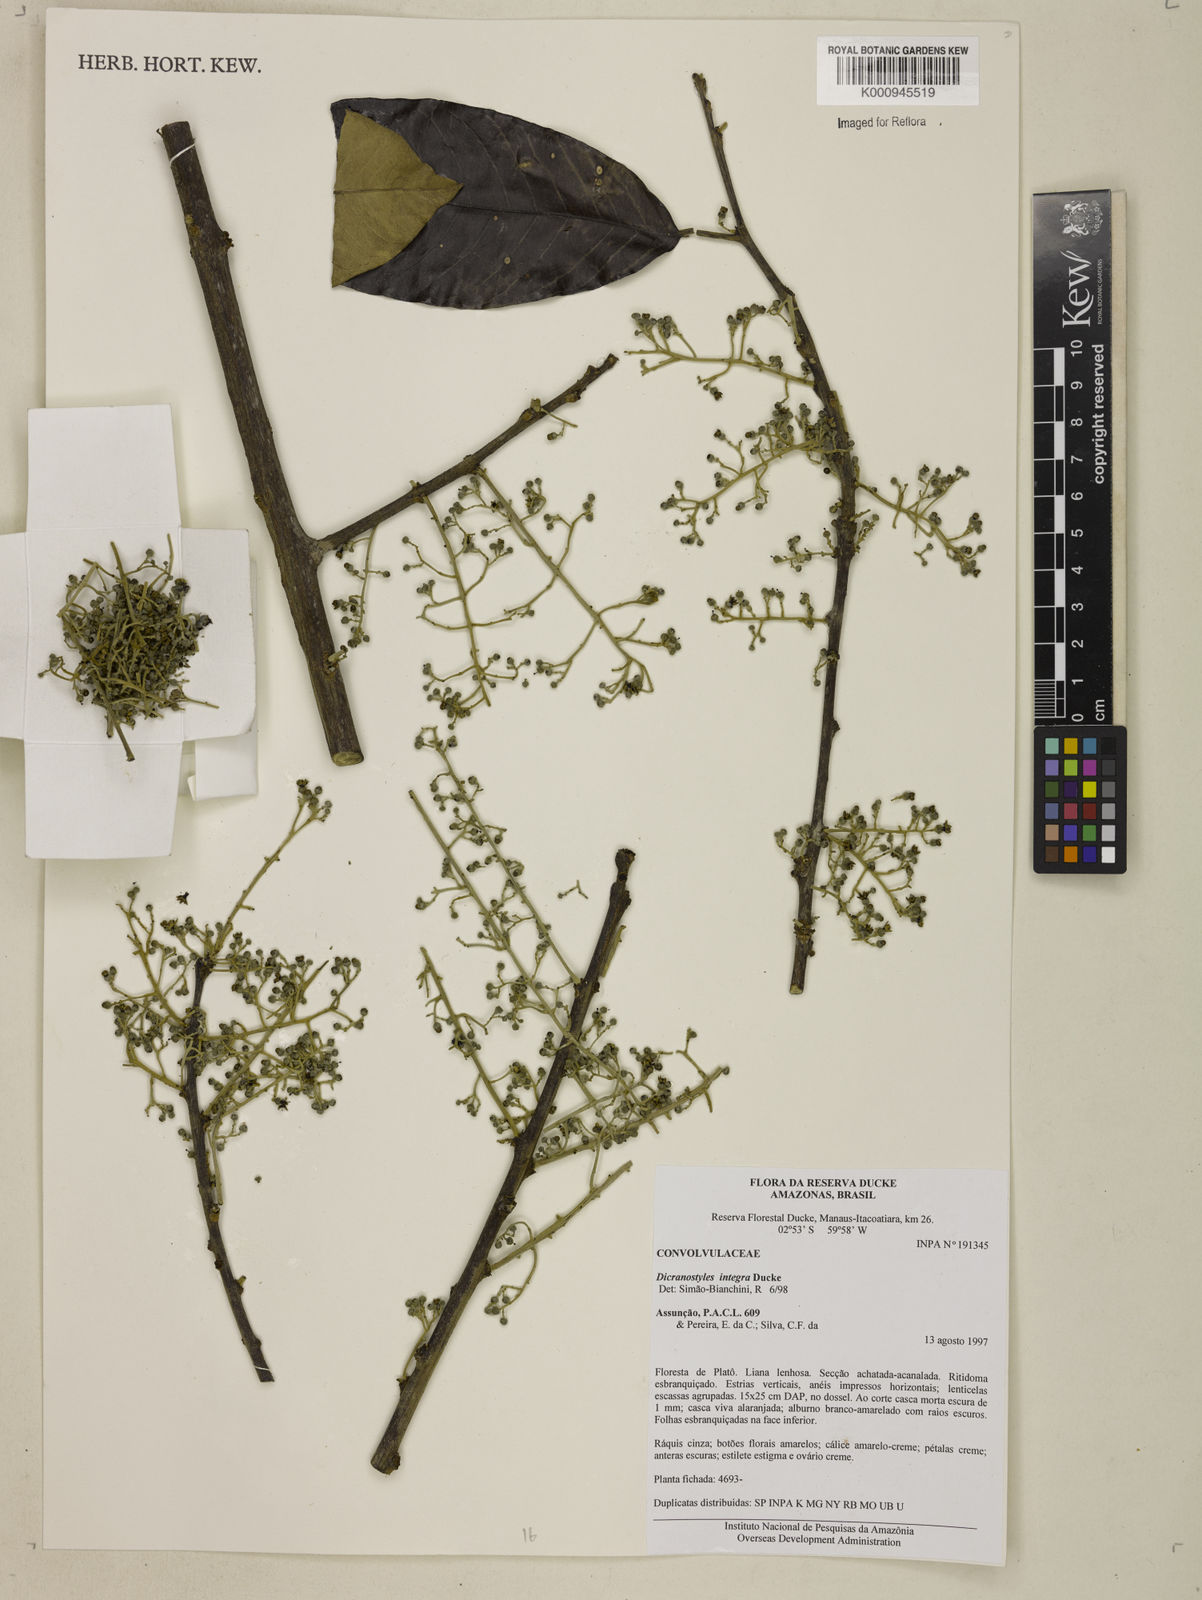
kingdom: Plantae
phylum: Tracheophyta
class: Magnoliopsida
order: Solanales
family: Convolvulaceae
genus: Dicranostyles
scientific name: Dicranostyles integra
